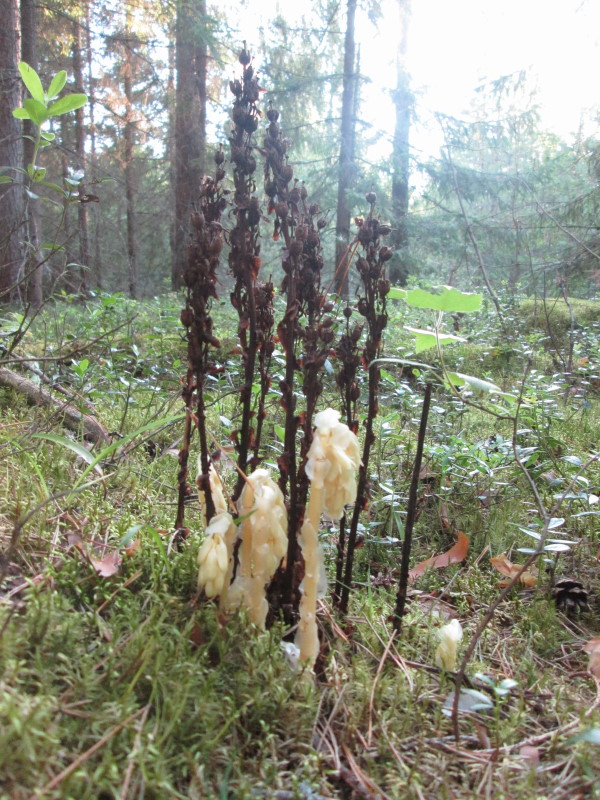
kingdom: Plantae
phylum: Tracheophyta
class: Magnoliopsida
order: Ericales
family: Ericaceae
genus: Hypopitys
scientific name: Hypopitys monotropa
